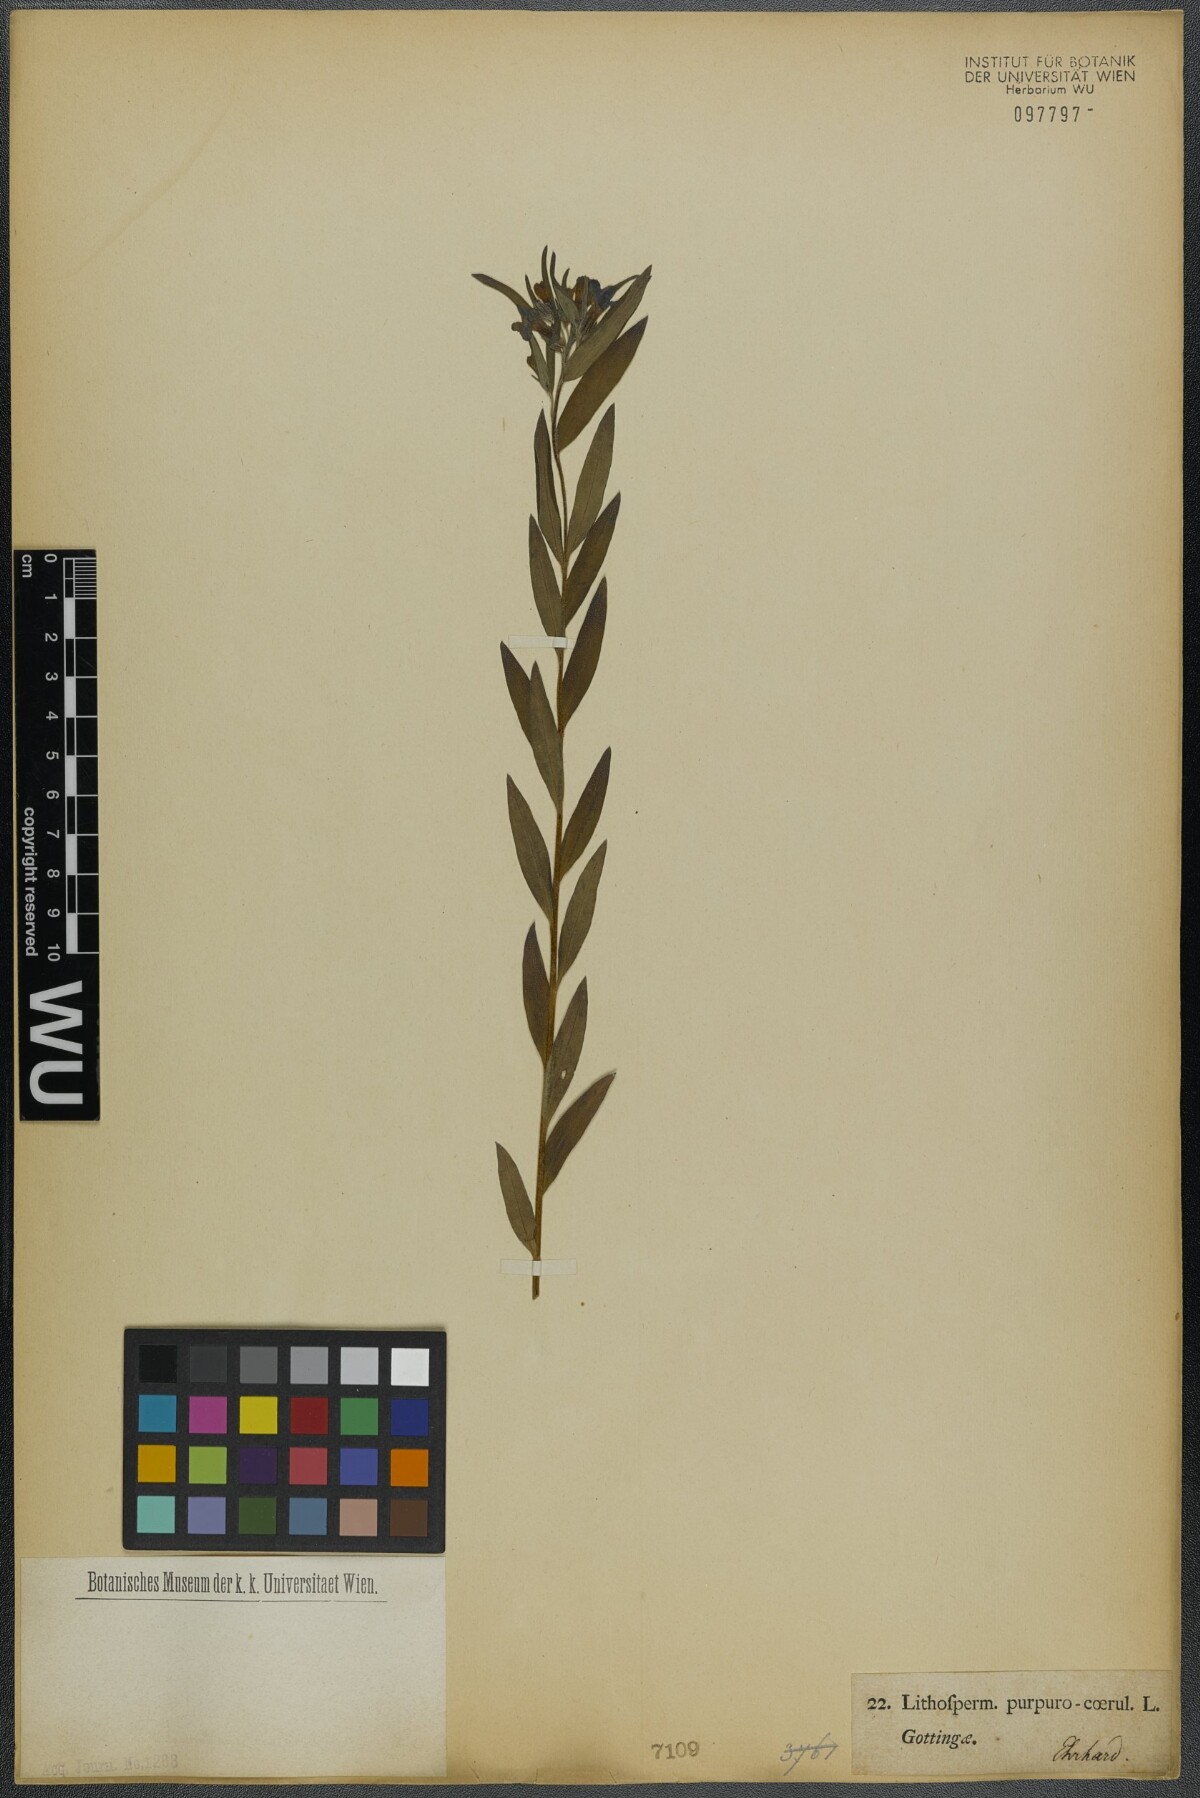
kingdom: Plantae
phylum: Tracheophyta
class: Magnoliopsida
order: Boraginales
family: Boraginaceae
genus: Aegonychon
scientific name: Aegonychon purpurocaeruleum
